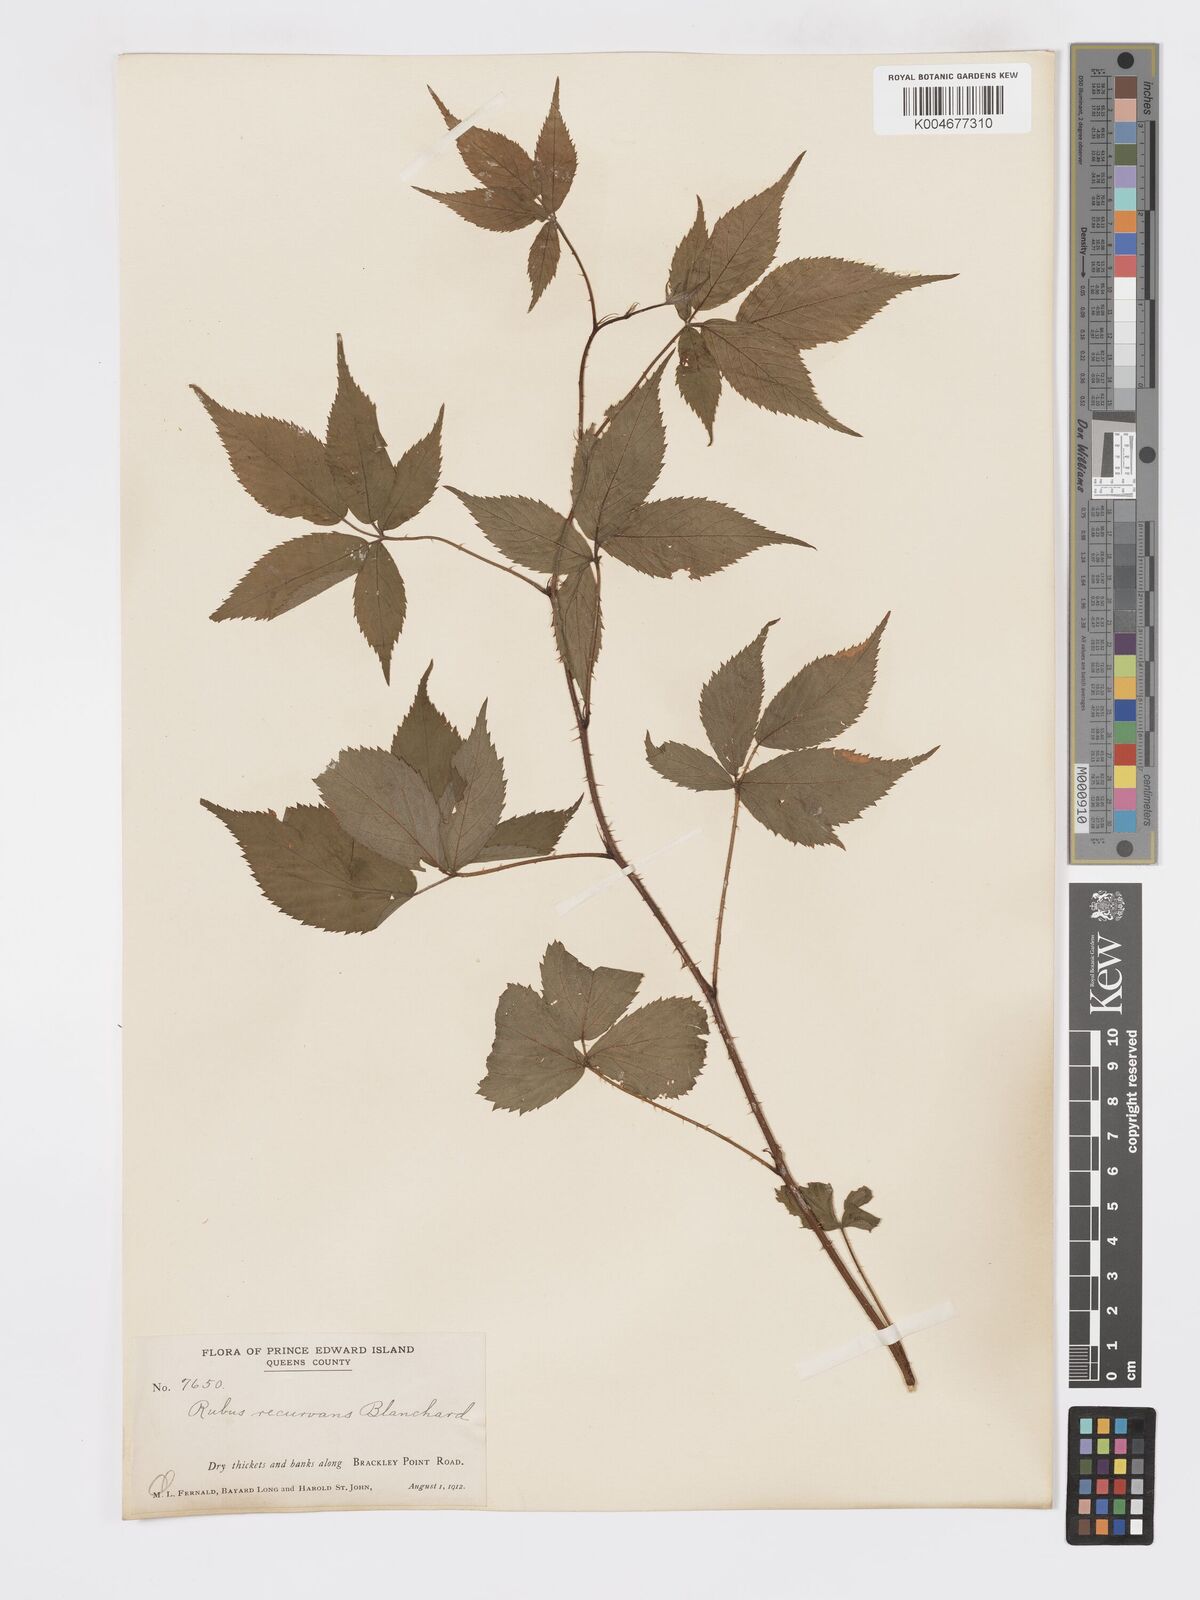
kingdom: Plantae
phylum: Tracheophyta
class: Magnoliopsida
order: Rosales
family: Rosaceae
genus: Rubus
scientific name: Rubus frondosus
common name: Yankee blackberry
